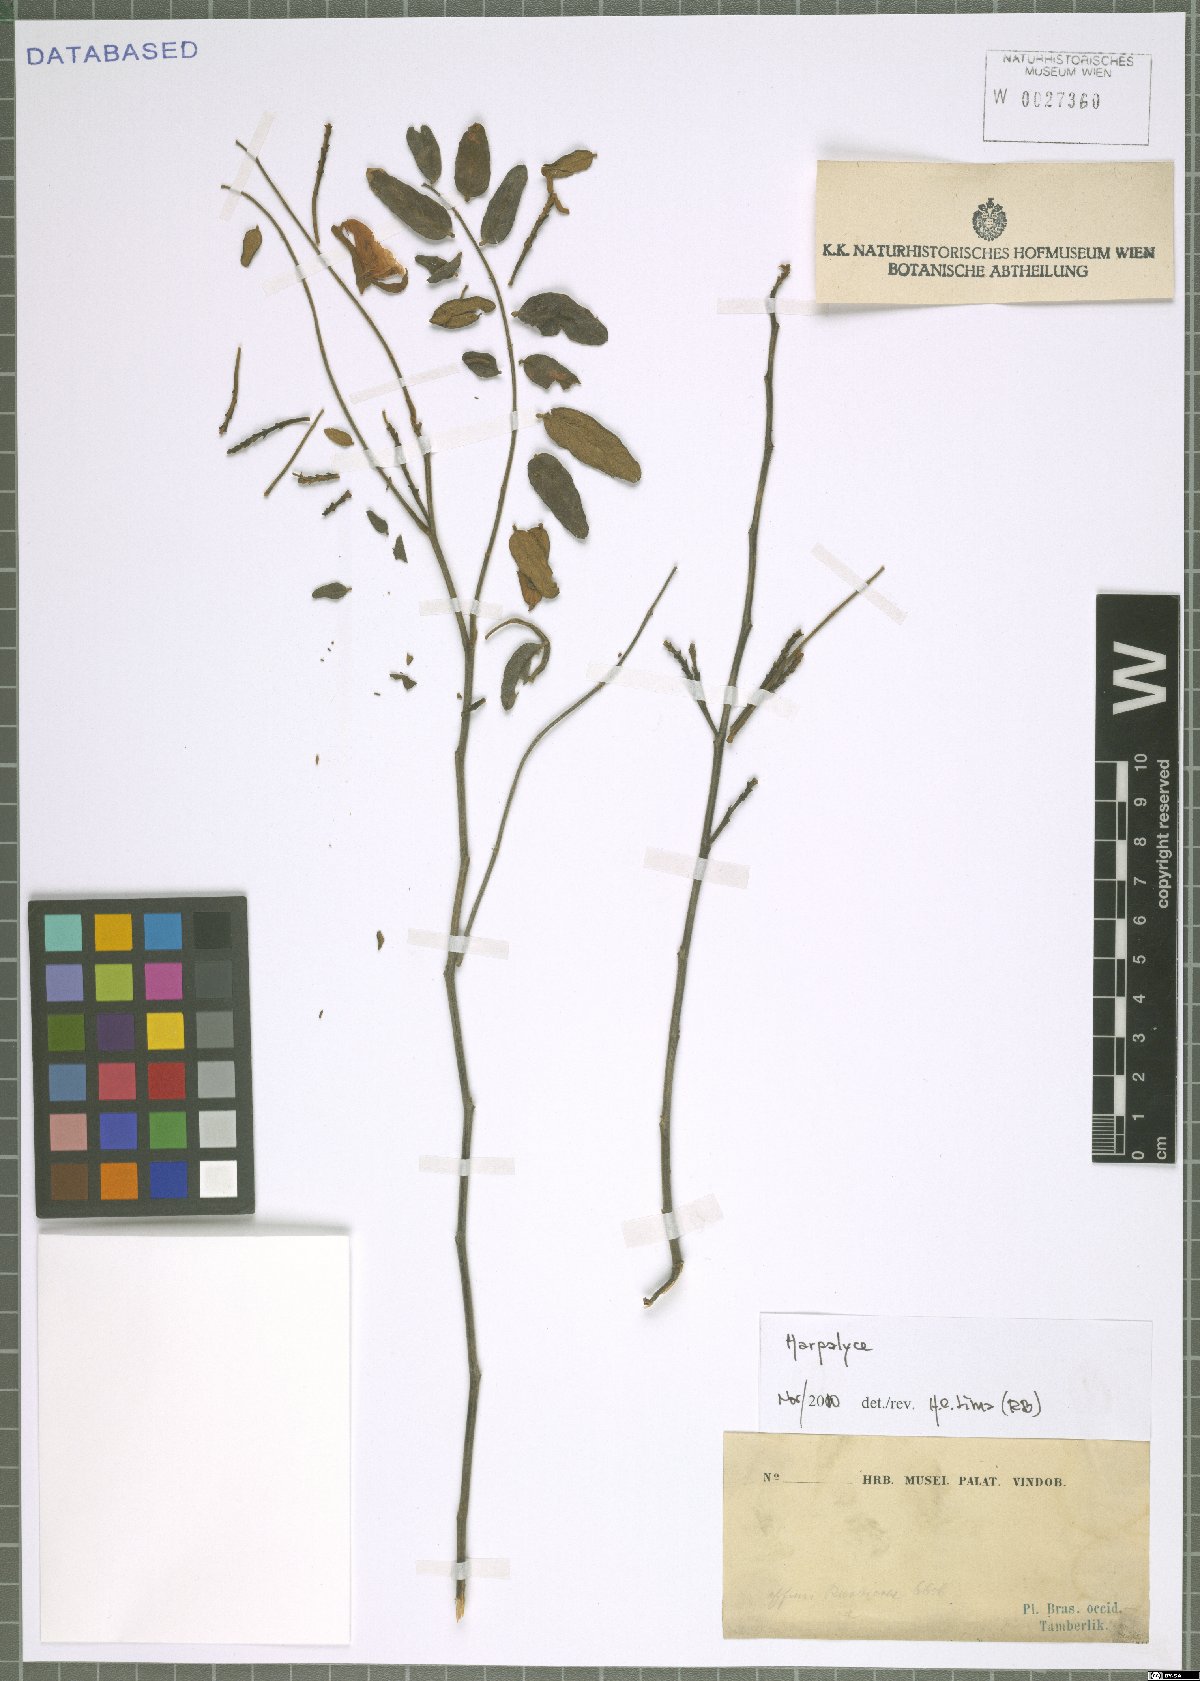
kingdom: Plantae
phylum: Tracheophyta
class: Magnoliopsida
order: Fabales
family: Fabaceae
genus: Harpalyce
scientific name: Harpalyce
